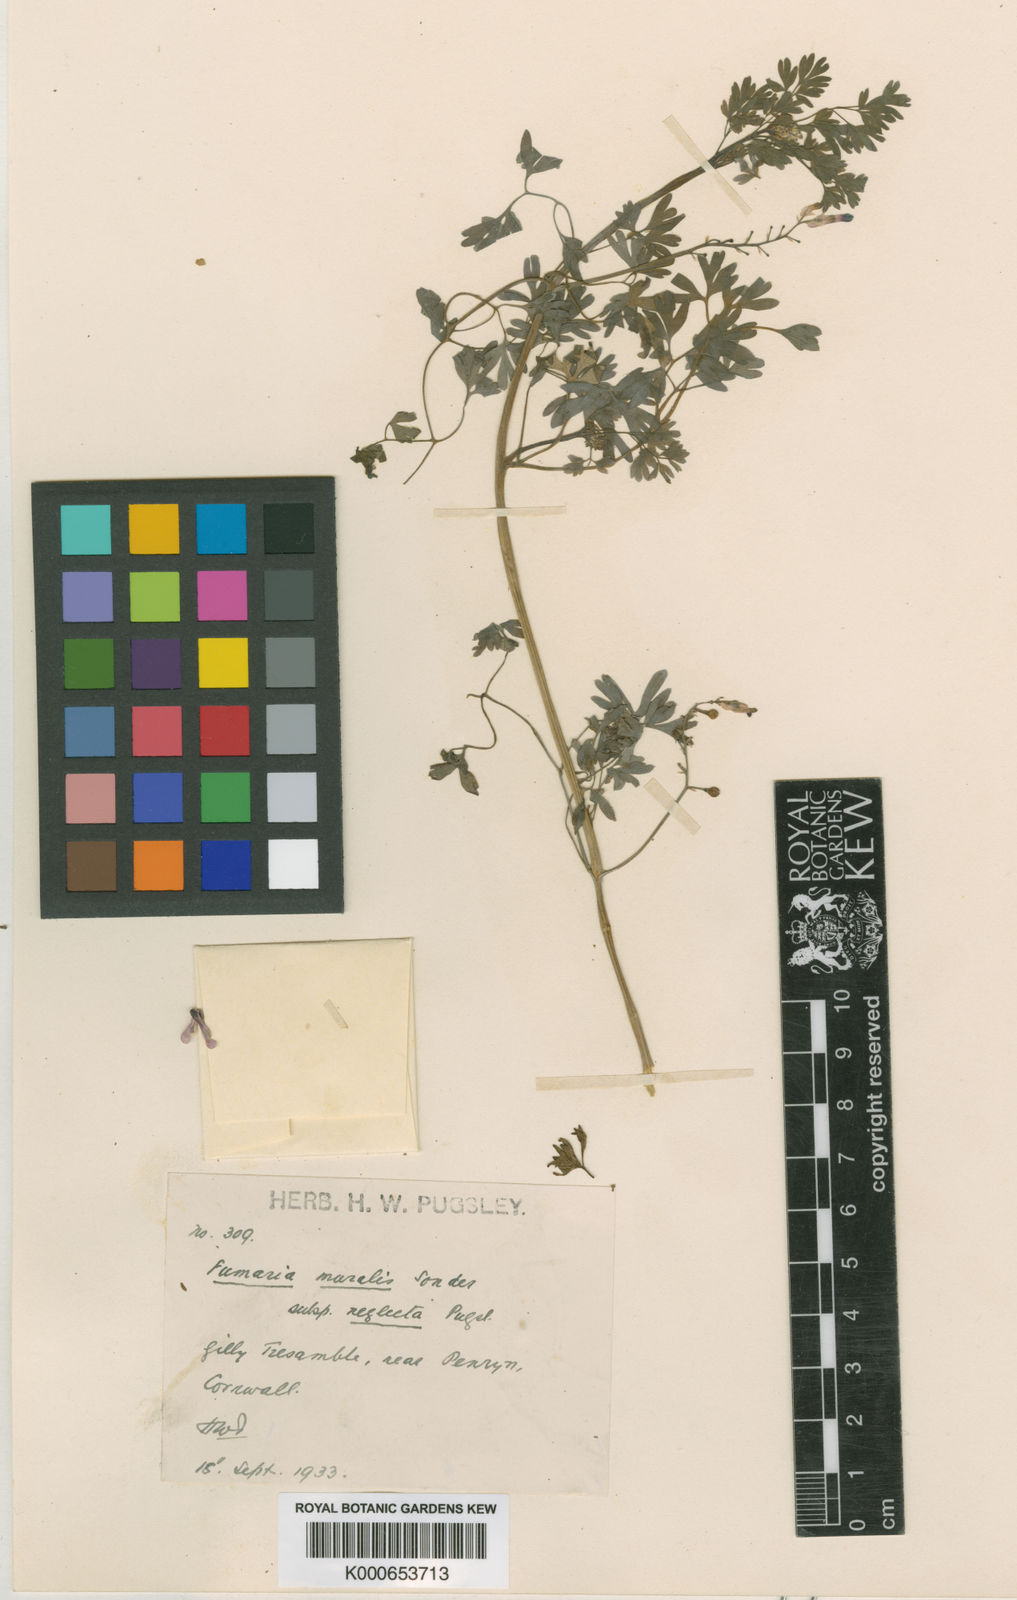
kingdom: Plantae
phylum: Tracheophyta
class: Magnoliopsida
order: Ranunculales
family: Papaveraceae
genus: Fumaria
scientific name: Fumaria muralis
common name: Common ramping-fumitory
